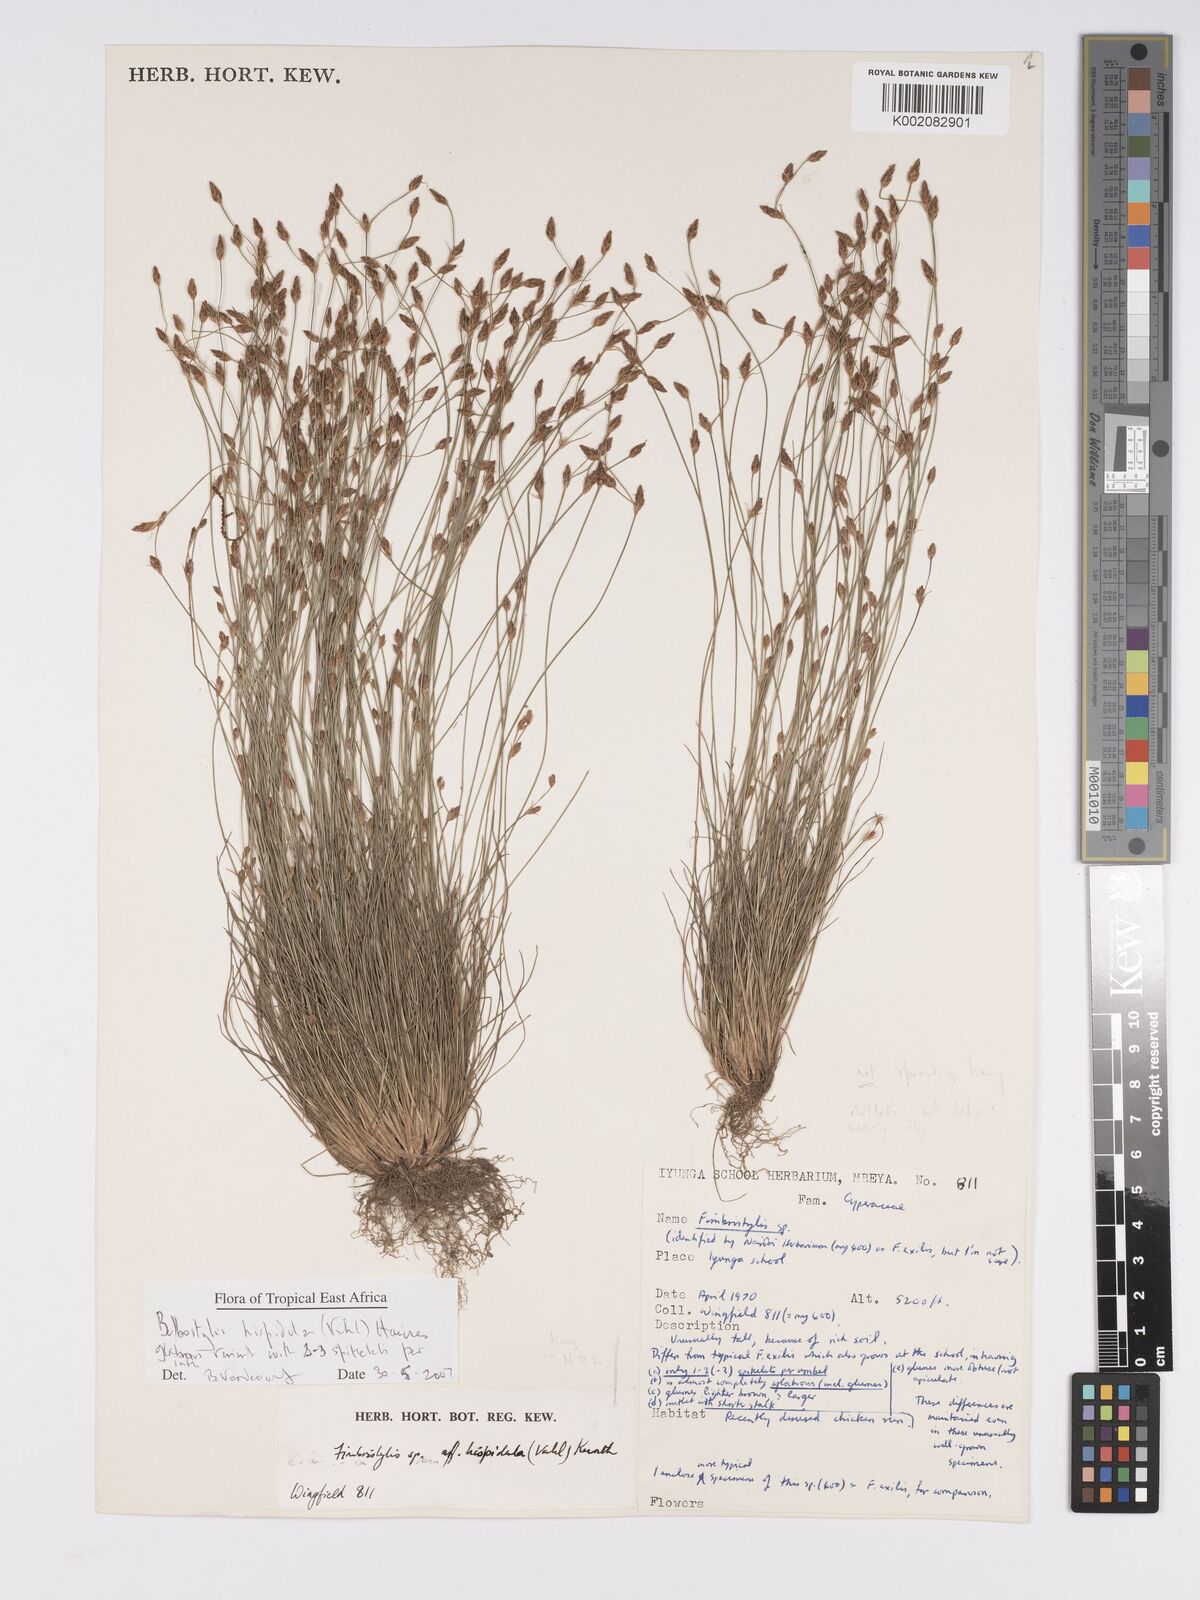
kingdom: Plantae
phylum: Tracheophyta
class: Liliopsida
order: Poales
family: Cyperaceae
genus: Bulbostylis
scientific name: Bulbostylis hispidula
